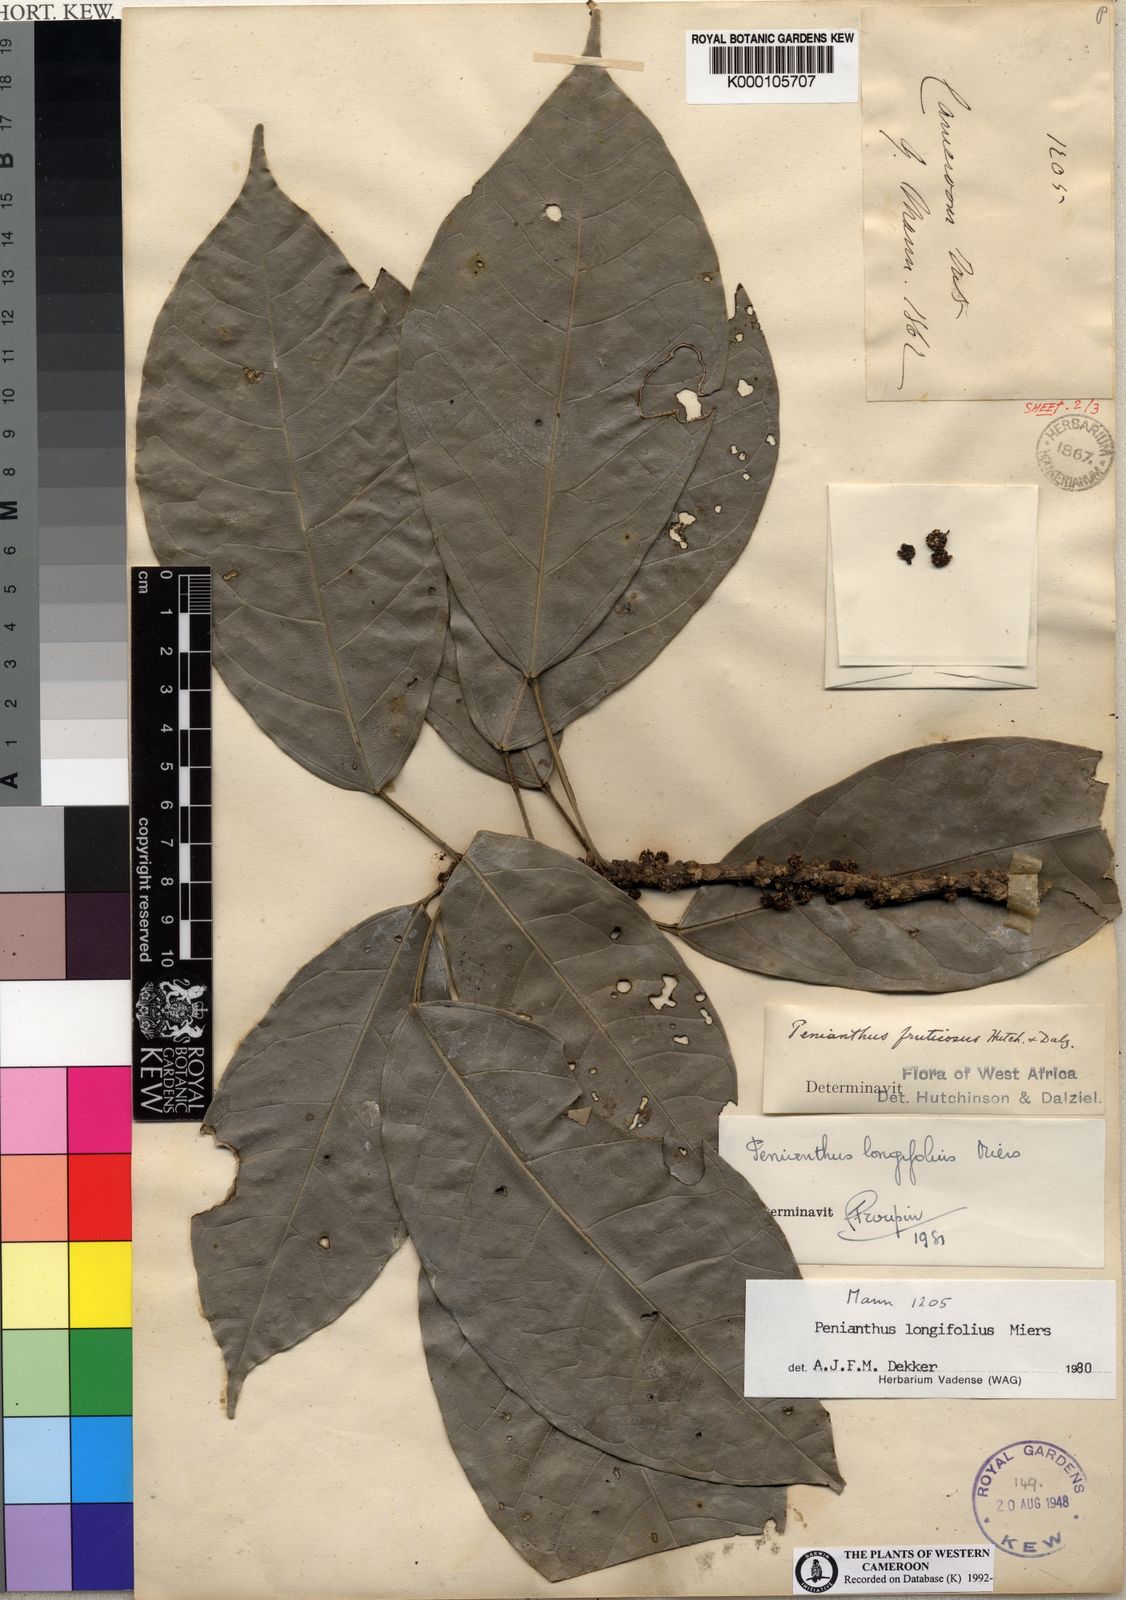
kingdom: Plantae
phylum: Tracheophyta
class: Magnoliopsida
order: Ranunculales
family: Menispermaceae
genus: Penianthus
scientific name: Penianthus longifolius
